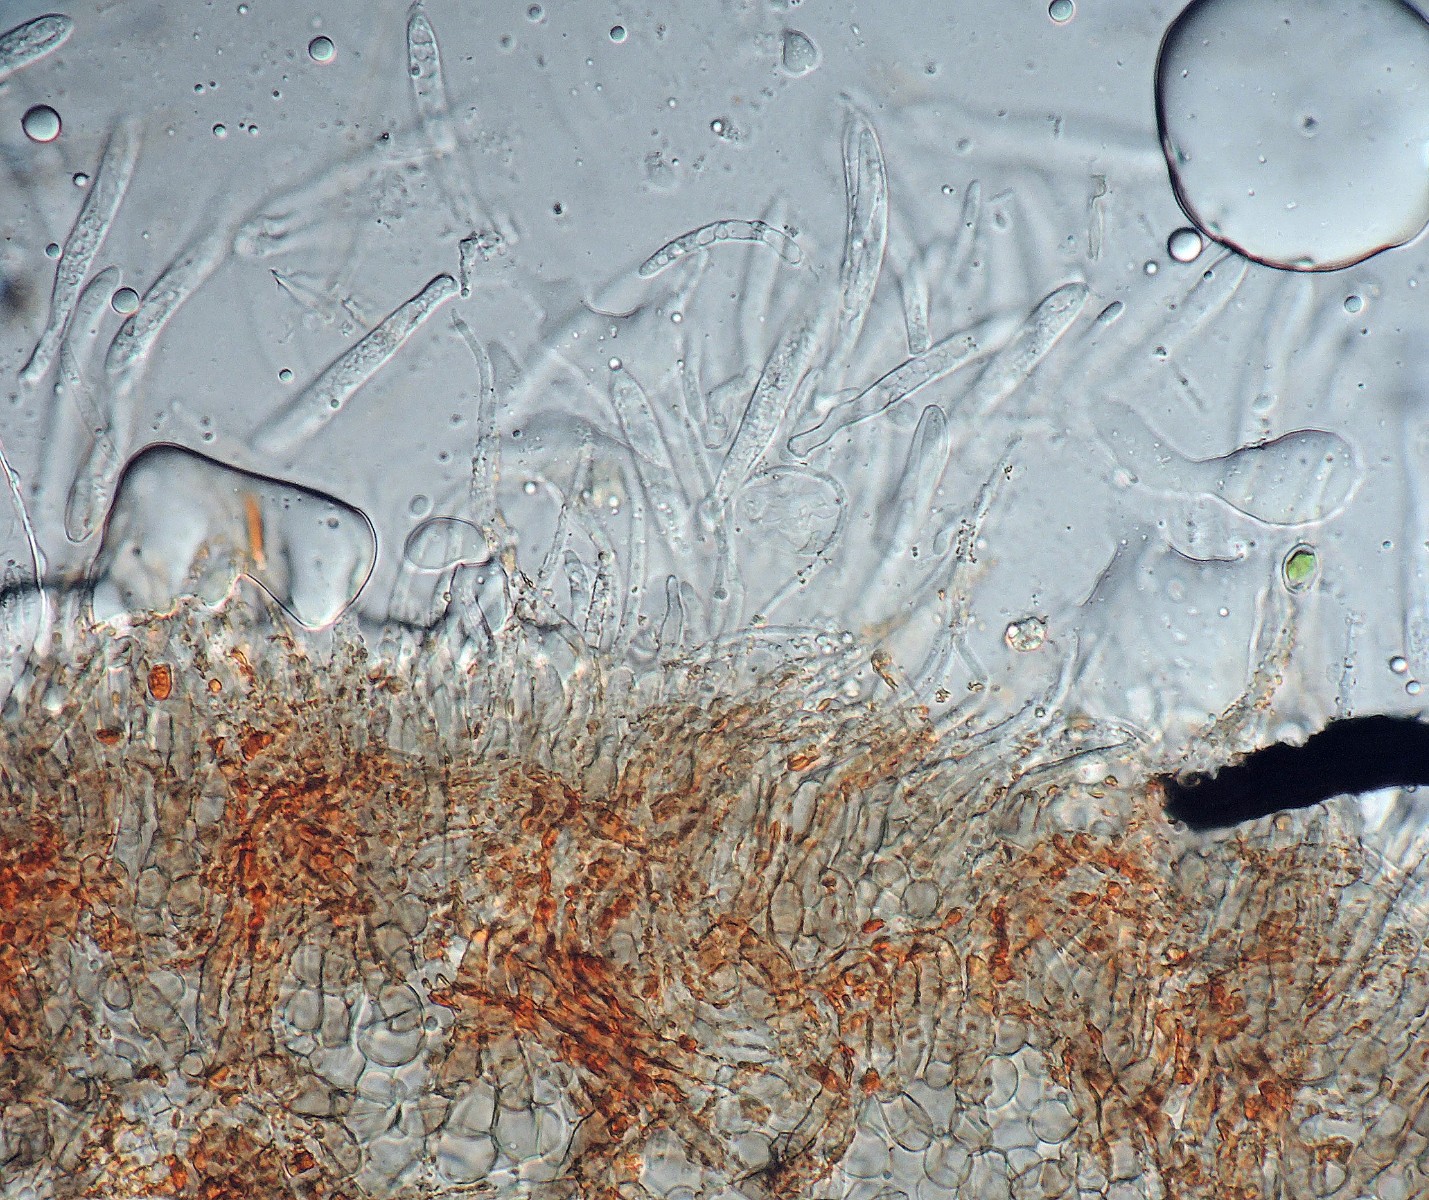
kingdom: Fungi
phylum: Ascomycota
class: Leotiomycetes
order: Helotiales
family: Ploettnerulaceae
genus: Dennisiodiscus
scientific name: Dennisiodiscus prasinus
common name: sol-gråskive
